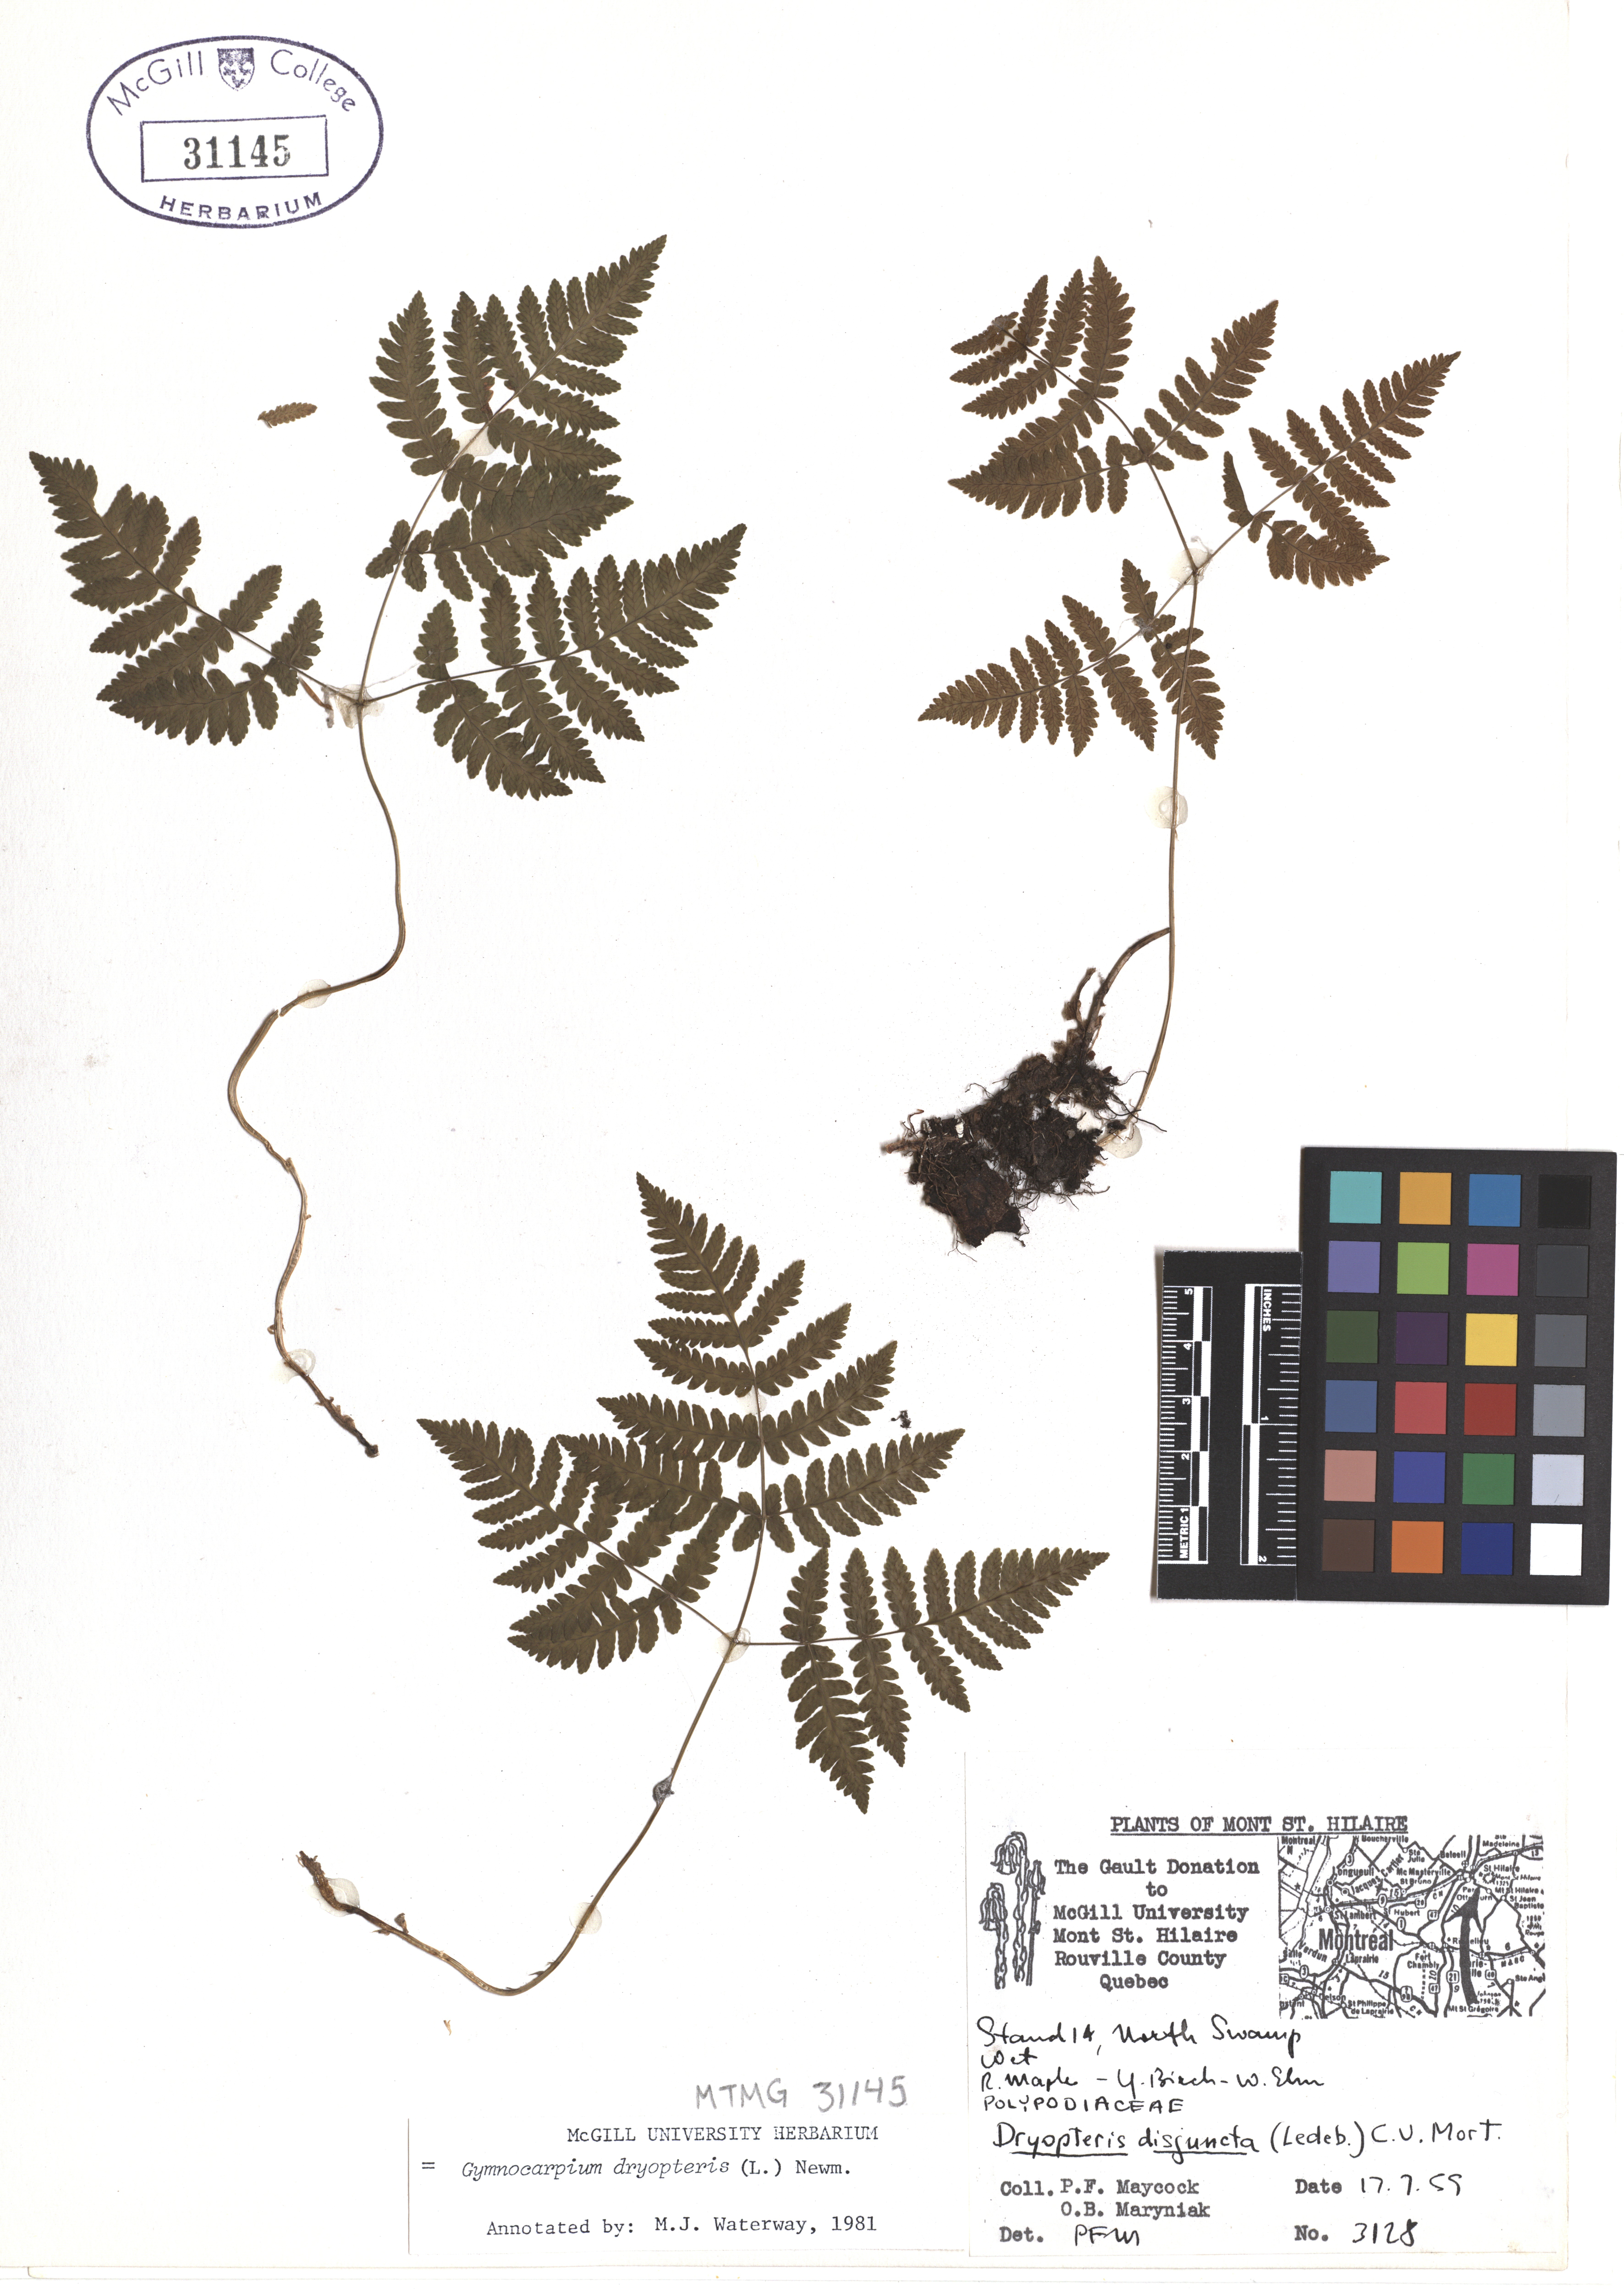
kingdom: Plantae
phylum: Tracheophyta
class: Polypodiopsida
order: Polypodiales
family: Cystopteridaceae
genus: Gymnocarpium
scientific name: Gymnocarpium dryopteris
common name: Oak fern
